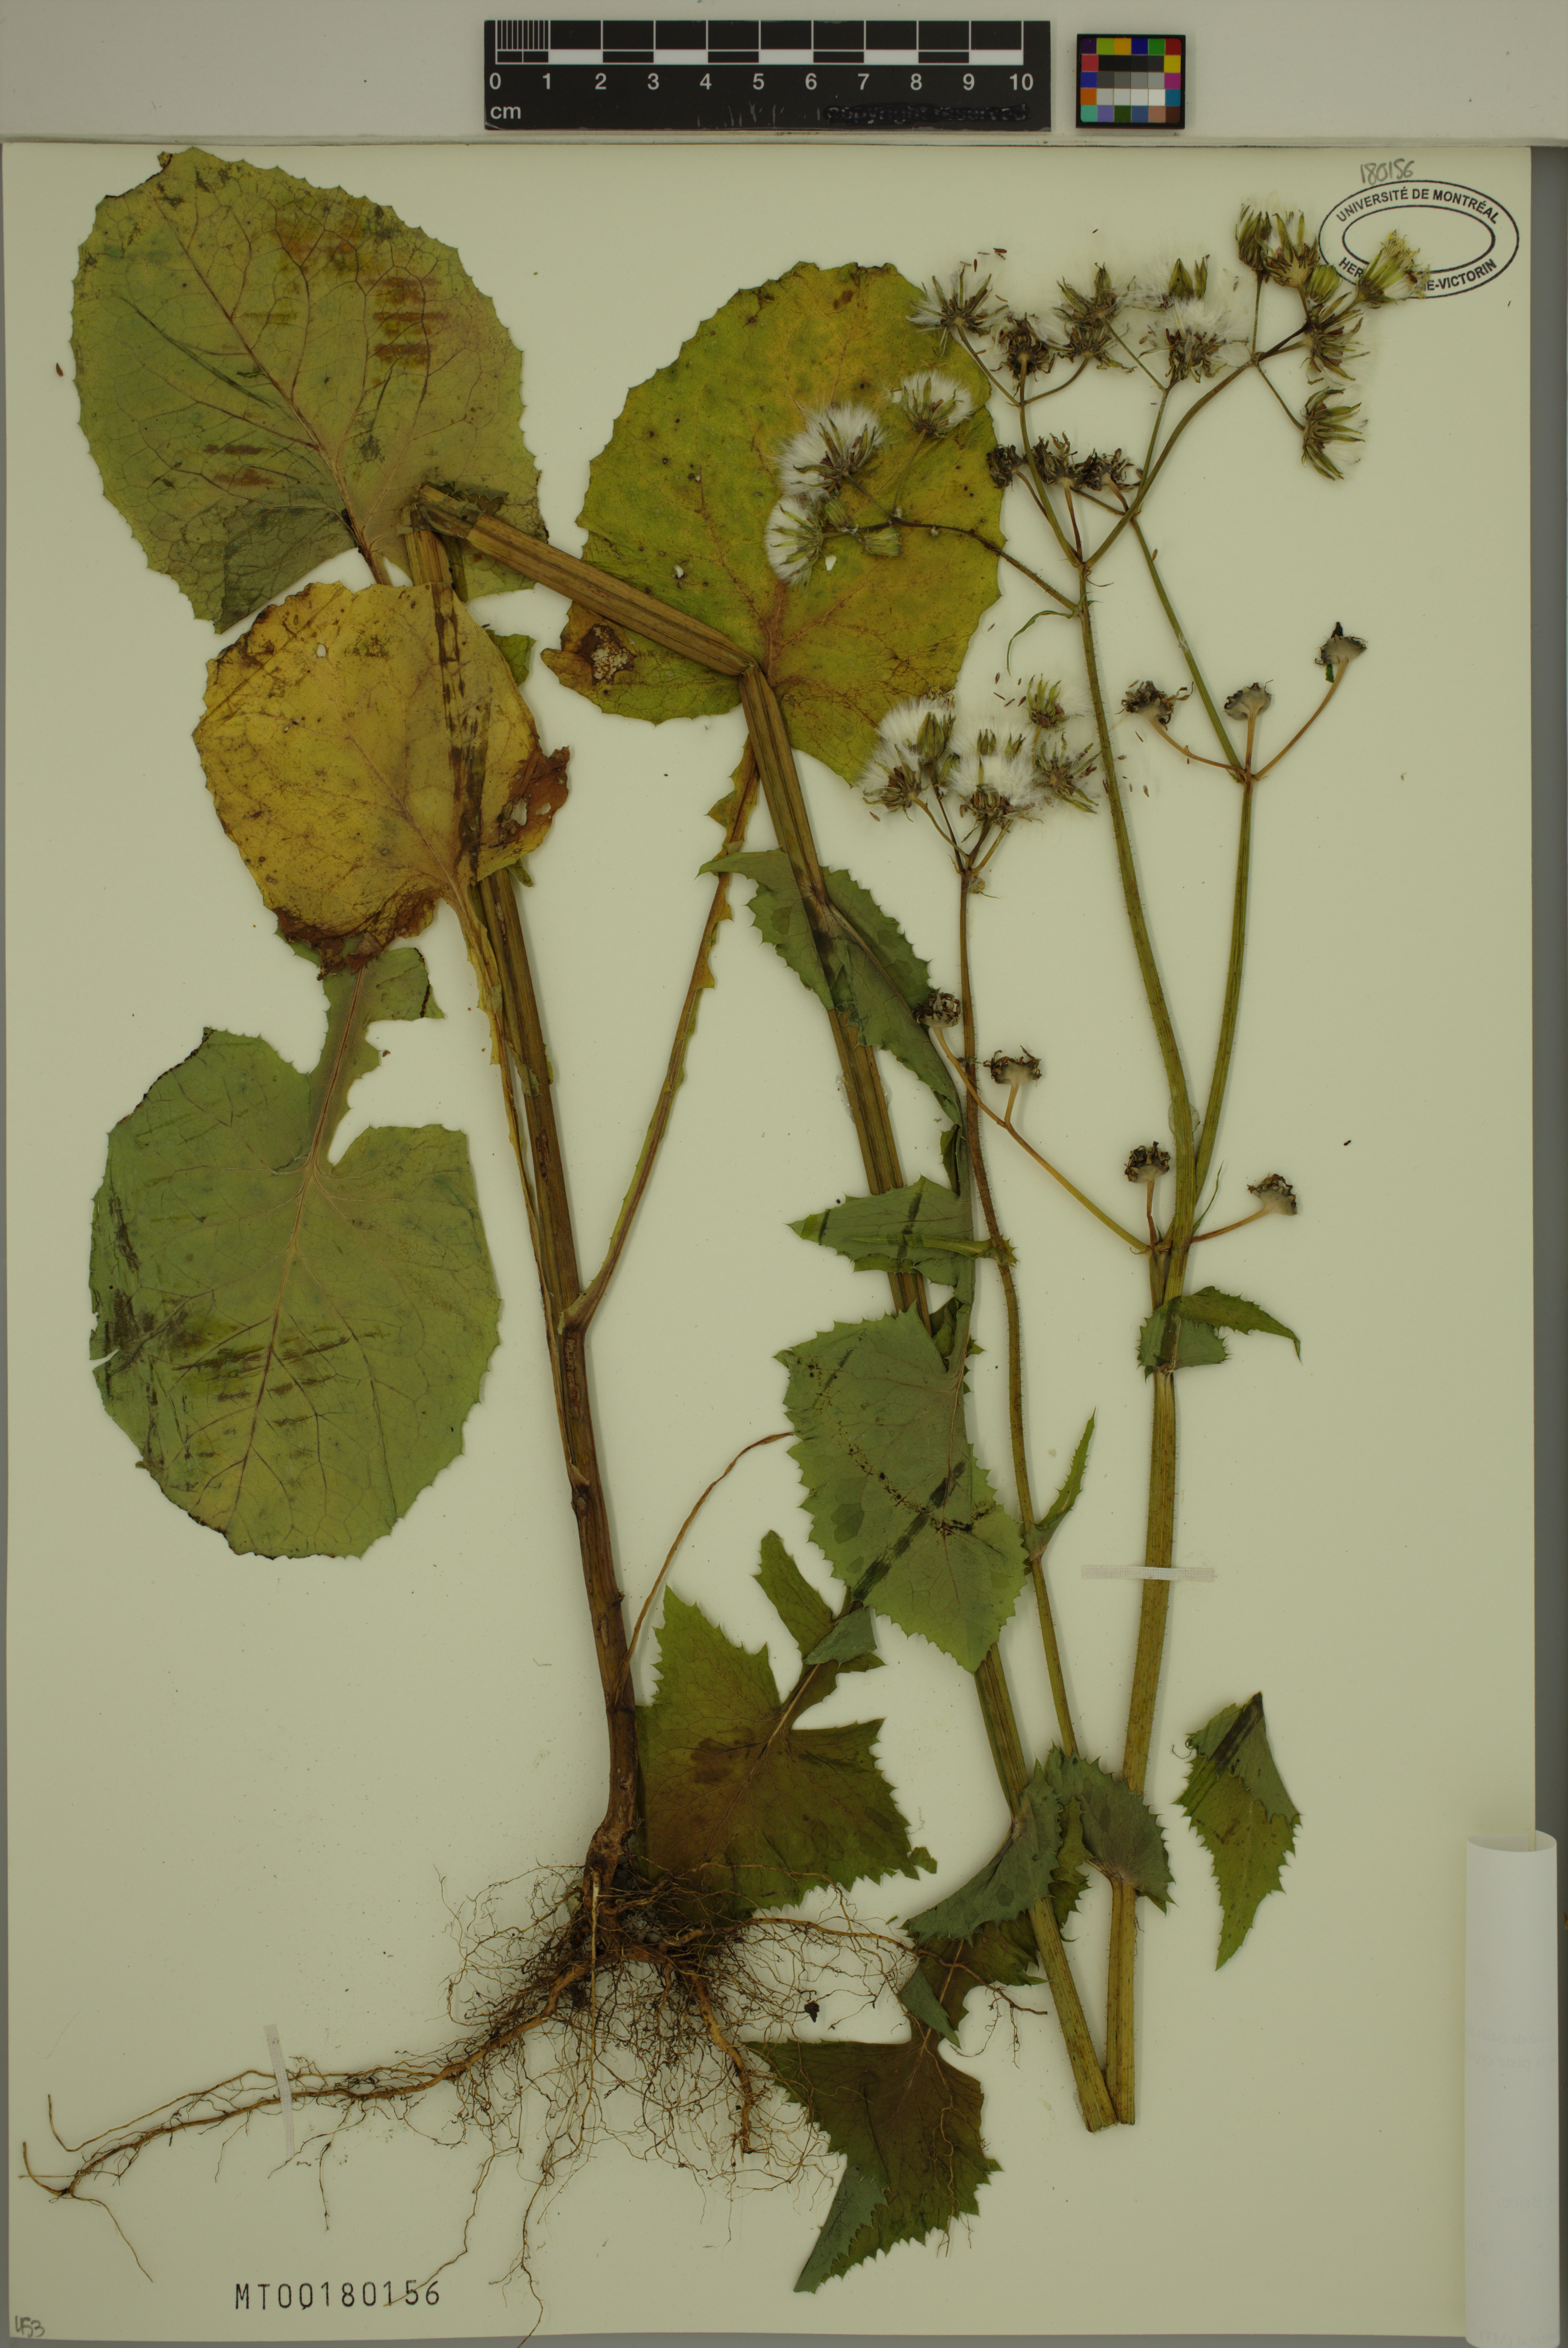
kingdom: Plantae
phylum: Tracheophyta
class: Magnoliopsida
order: Asterales
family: Asteraceae
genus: Sonchus
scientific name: Sonchus oleraceus
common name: Common sowthistle
